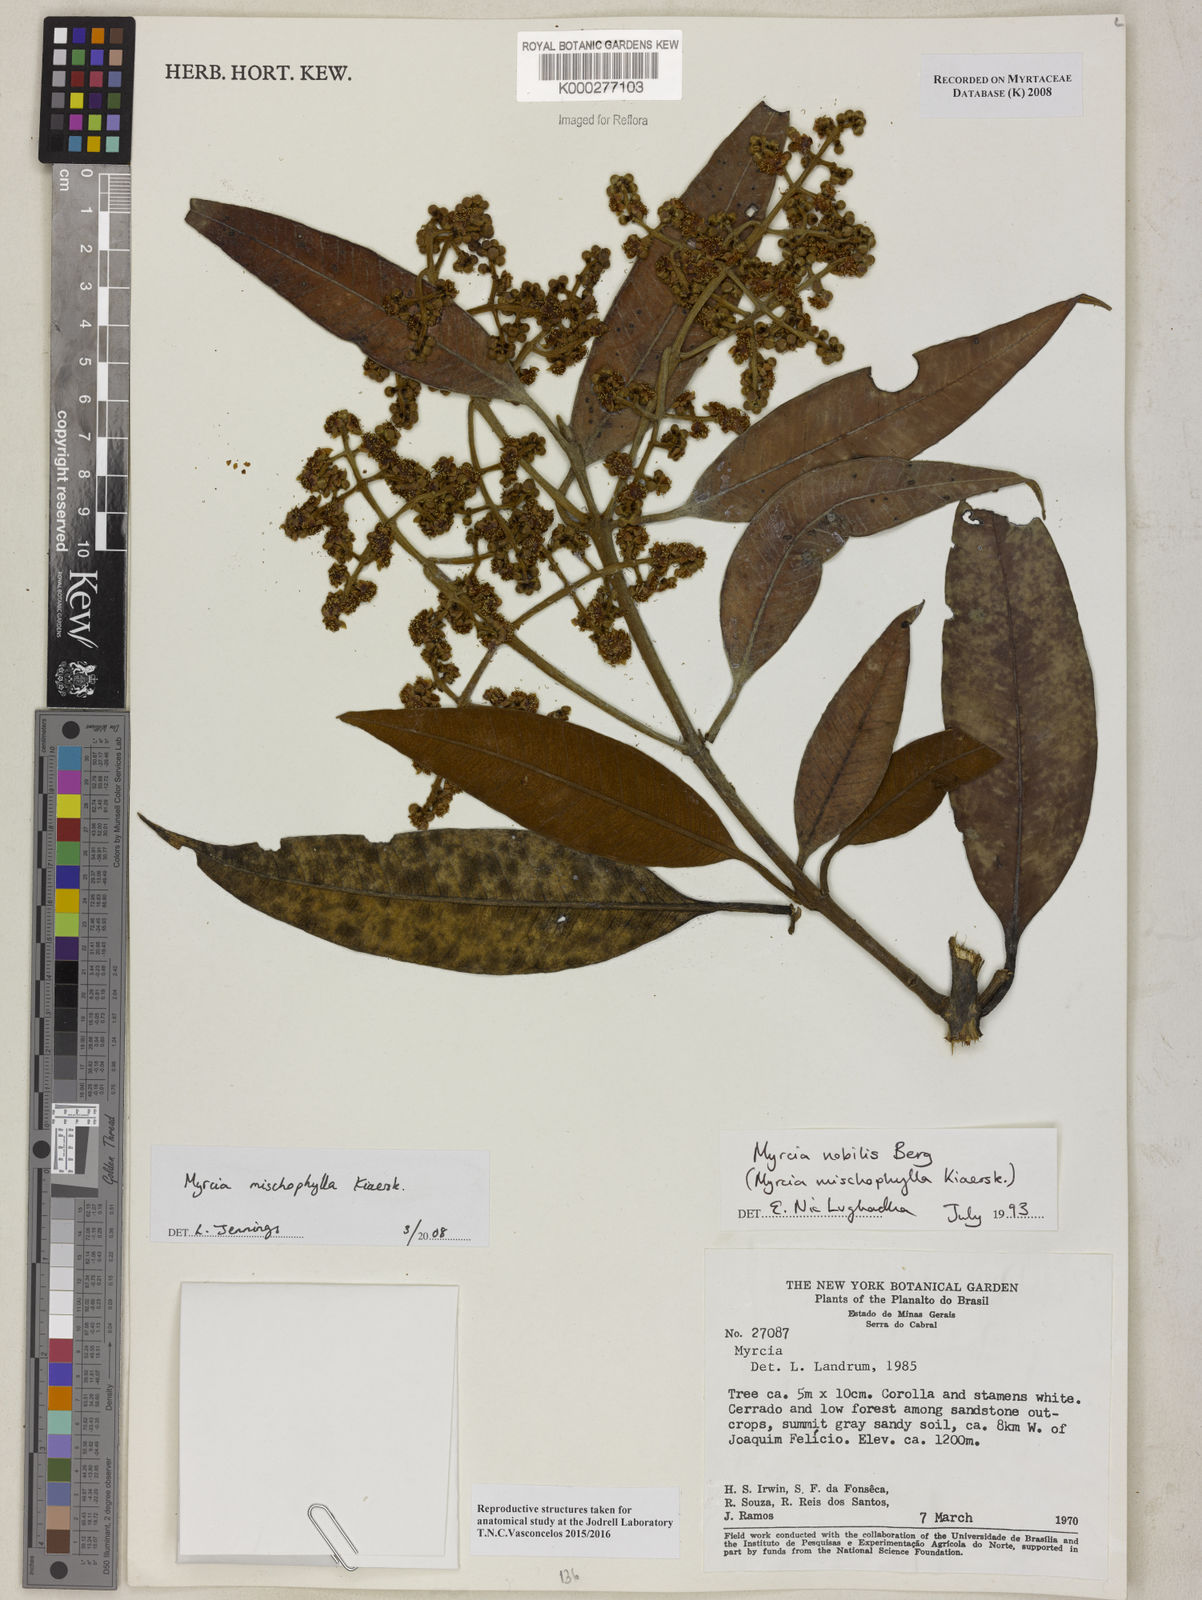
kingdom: Plantae
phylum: Tracheophyta
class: Magnoliopsida
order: Myrtales
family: Myrtaceae
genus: Myrcia
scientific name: Myrcia mischophylla
